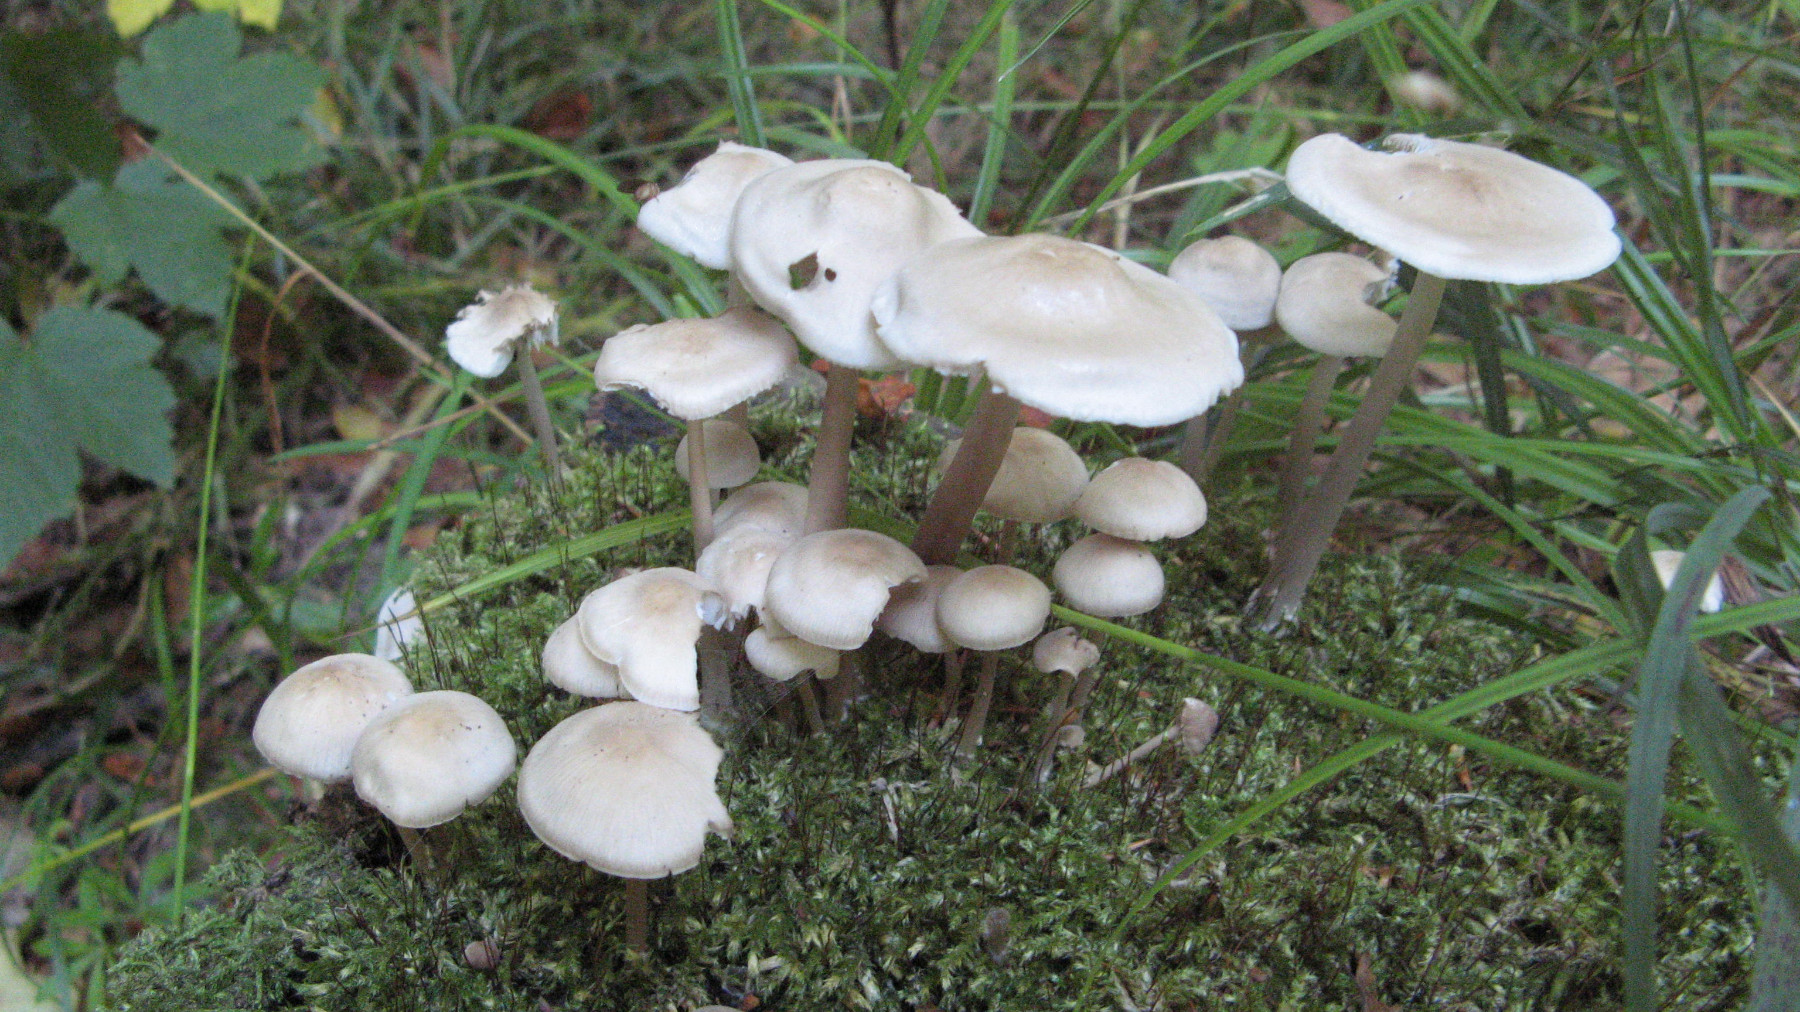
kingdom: Fungi
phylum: Basidiomycota
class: Agaricomycetes
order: Agaricales
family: Mycenaceae
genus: Mycena
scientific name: Mycena galericulata
